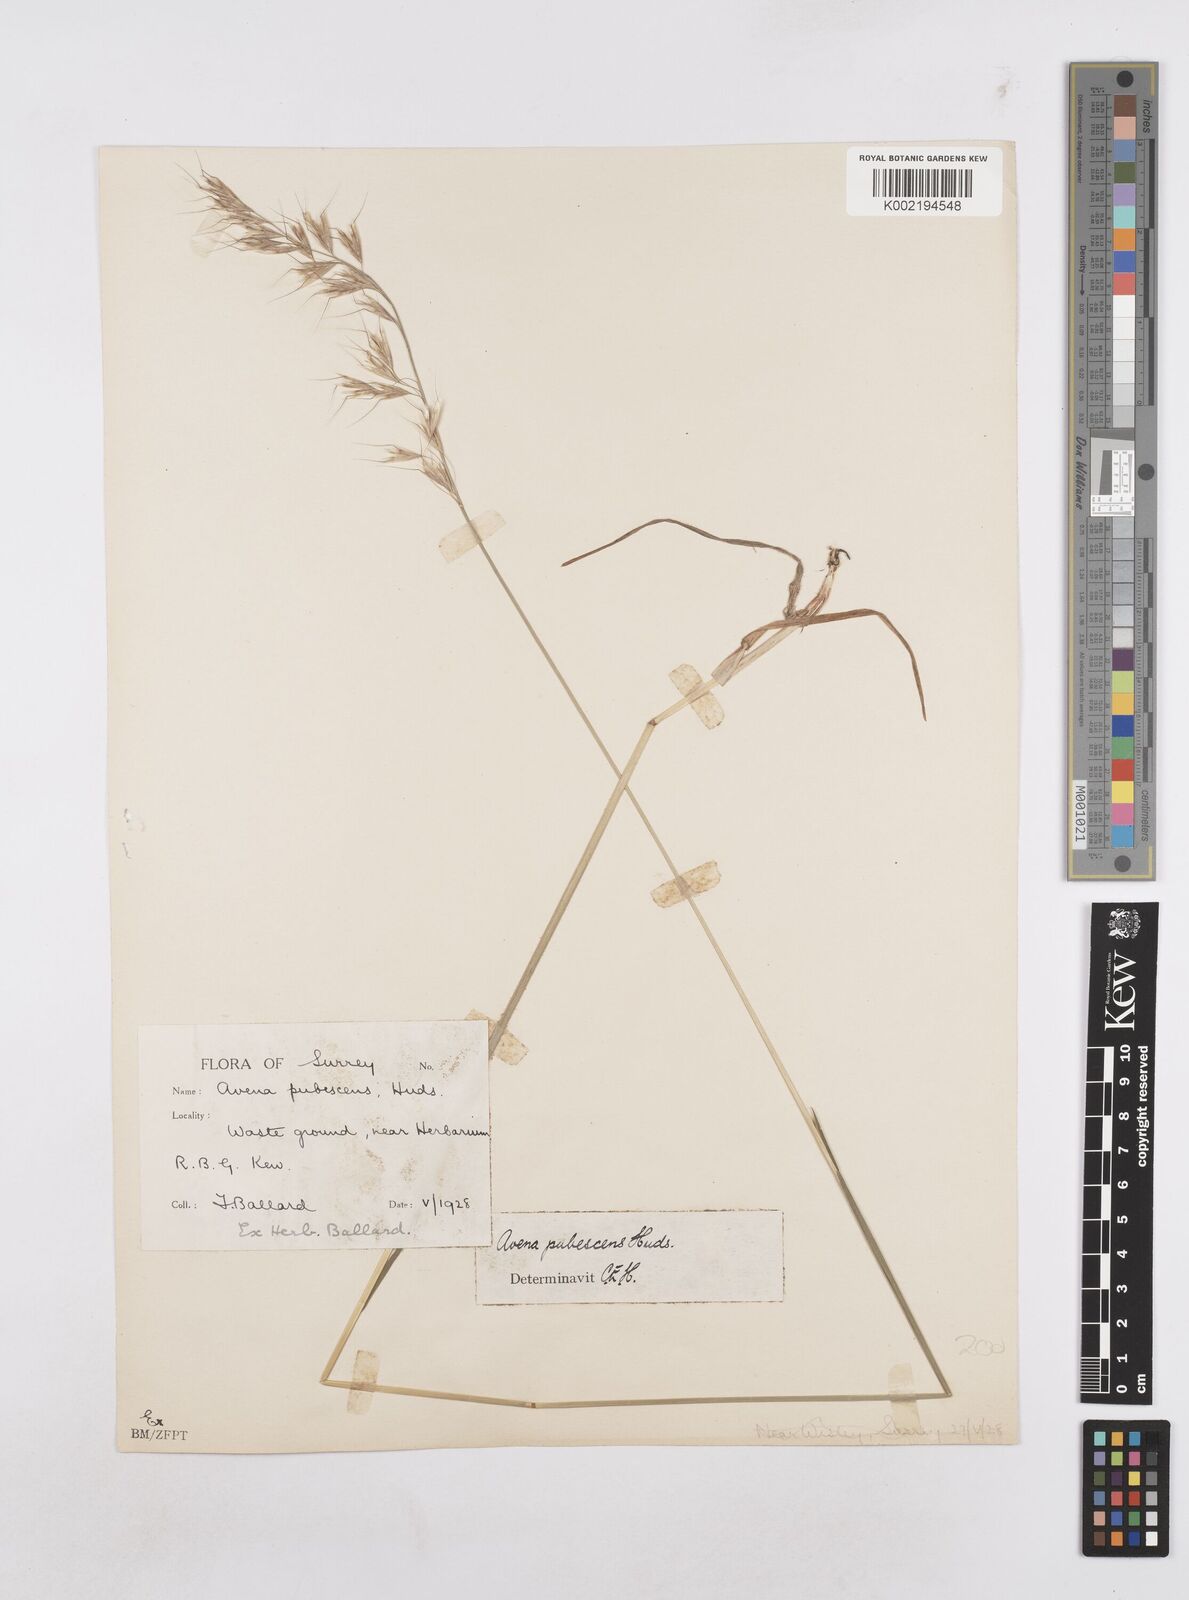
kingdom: Plantae
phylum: Tracheophyta
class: Liliopsida
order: Poales
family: Poaceae
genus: Avenula
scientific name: Avenula pubescens
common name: Downy alpine oatgrass
